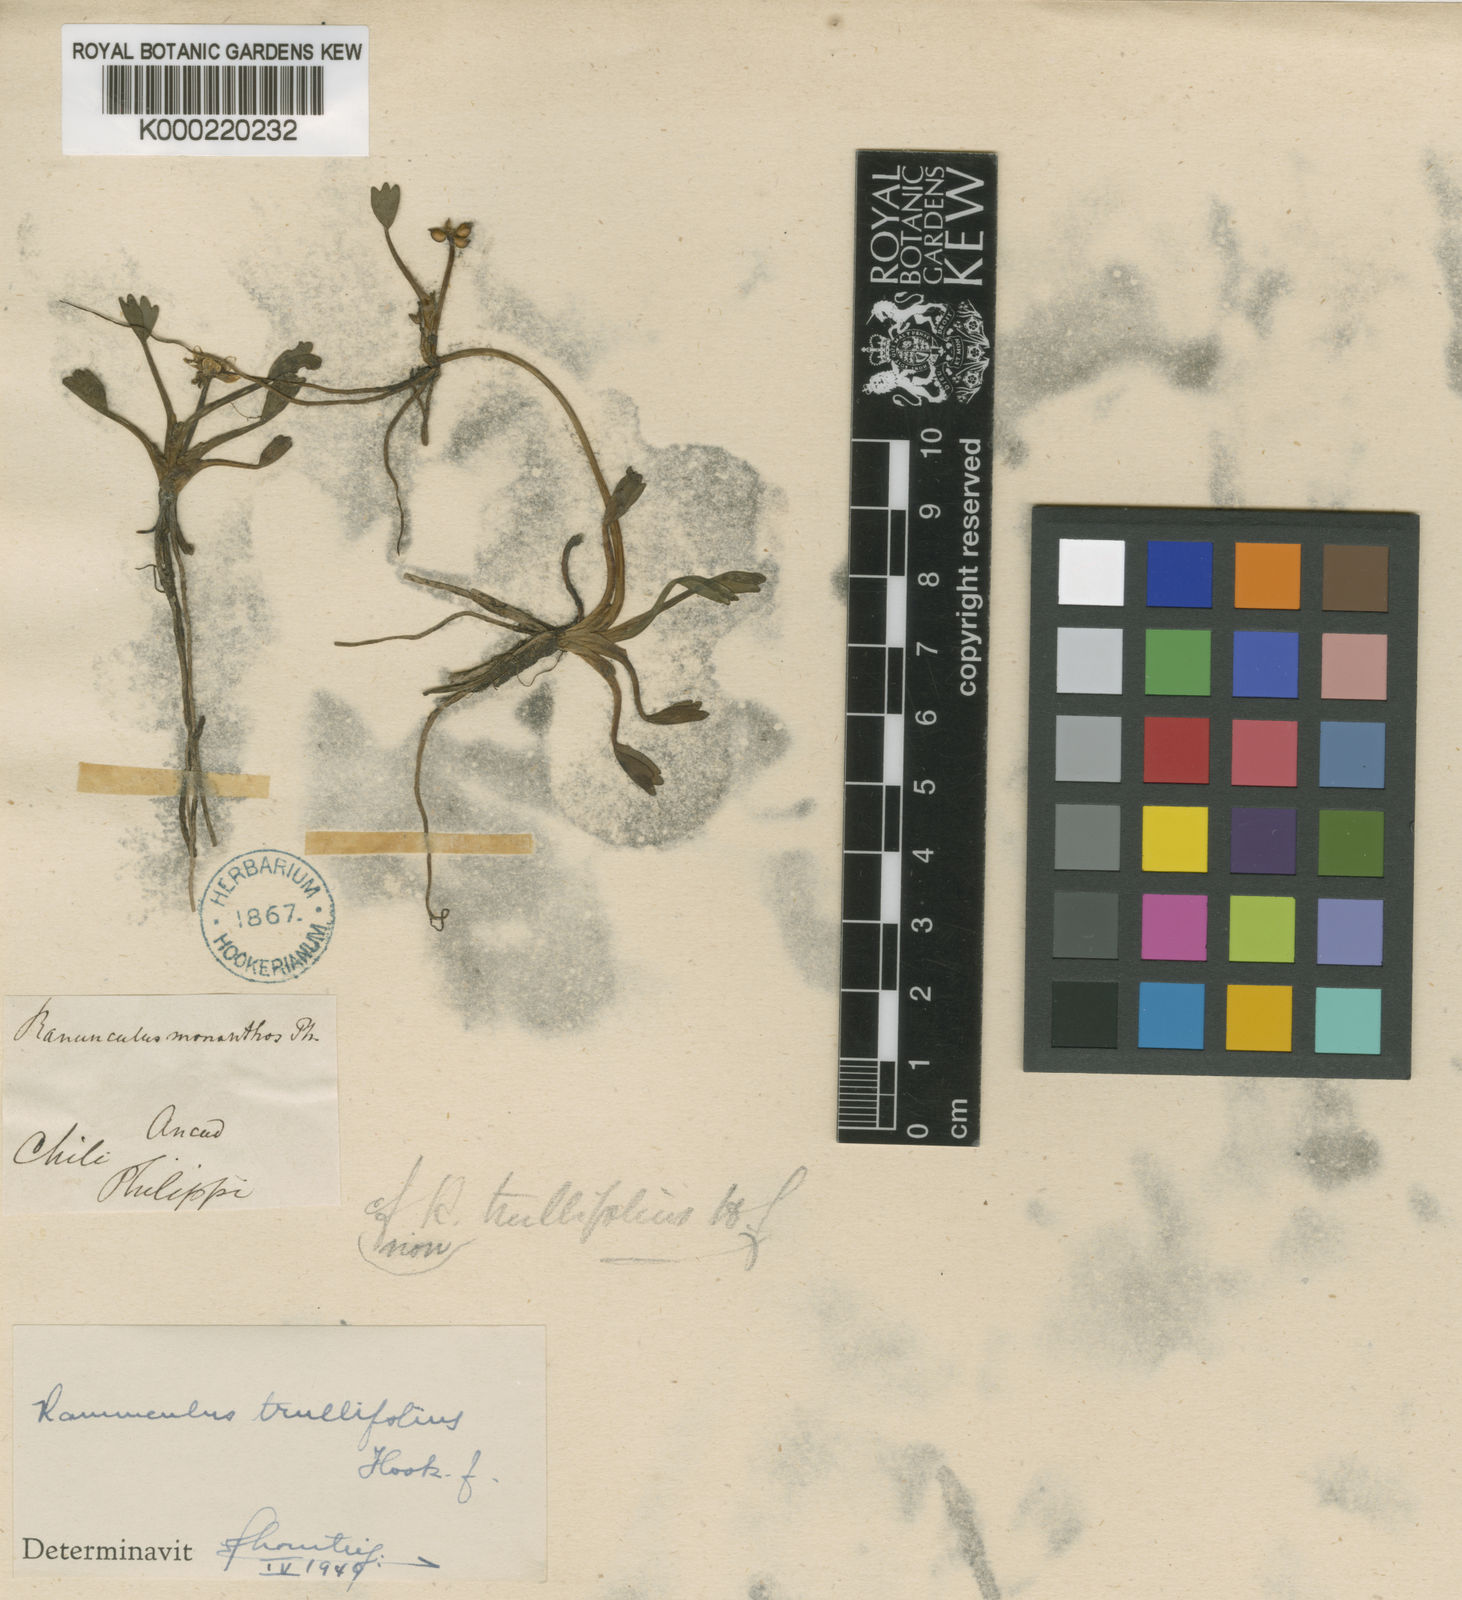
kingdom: Plantae
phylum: Tracheophyta
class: Magnoliopsida
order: Ranunculales
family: Ranunculaceae
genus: Ranunculus
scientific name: Ranunculus trullifolius
